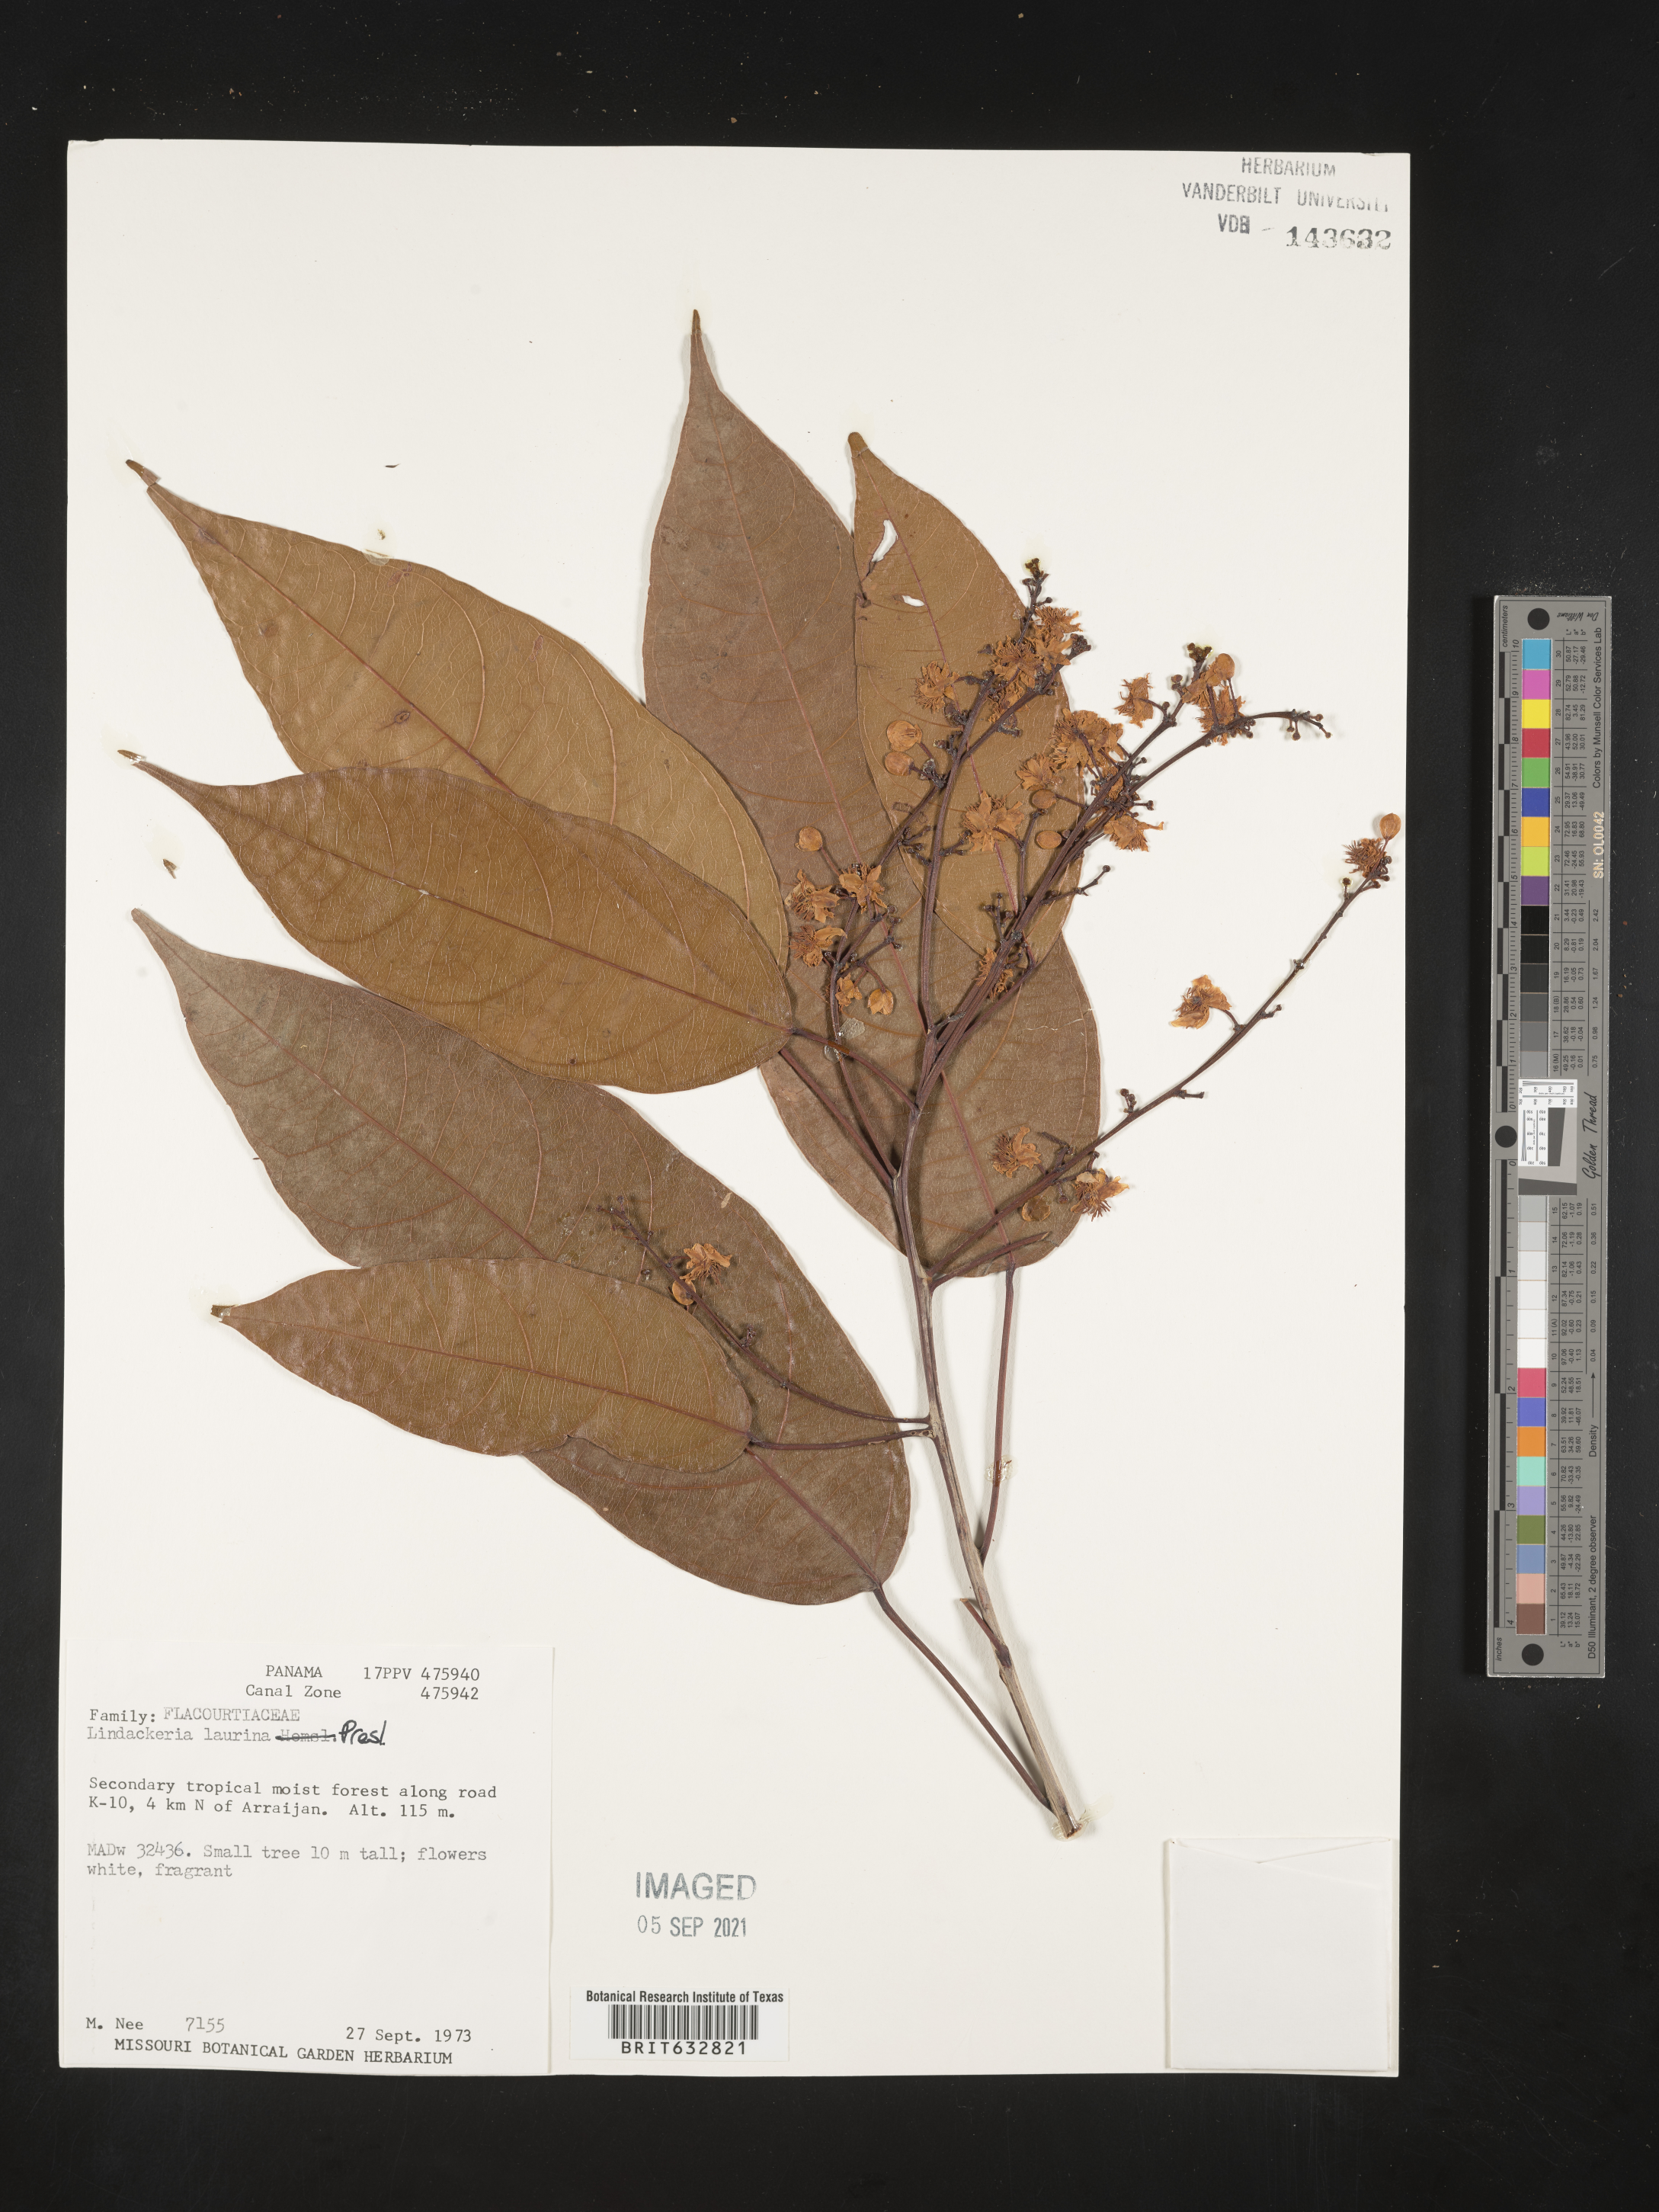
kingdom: Plantae
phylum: Tracheophyta
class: Magnoliopsida
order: Malpighiales
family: Achariaceae
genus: Lindackeria
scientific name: Lindackeria laurina
